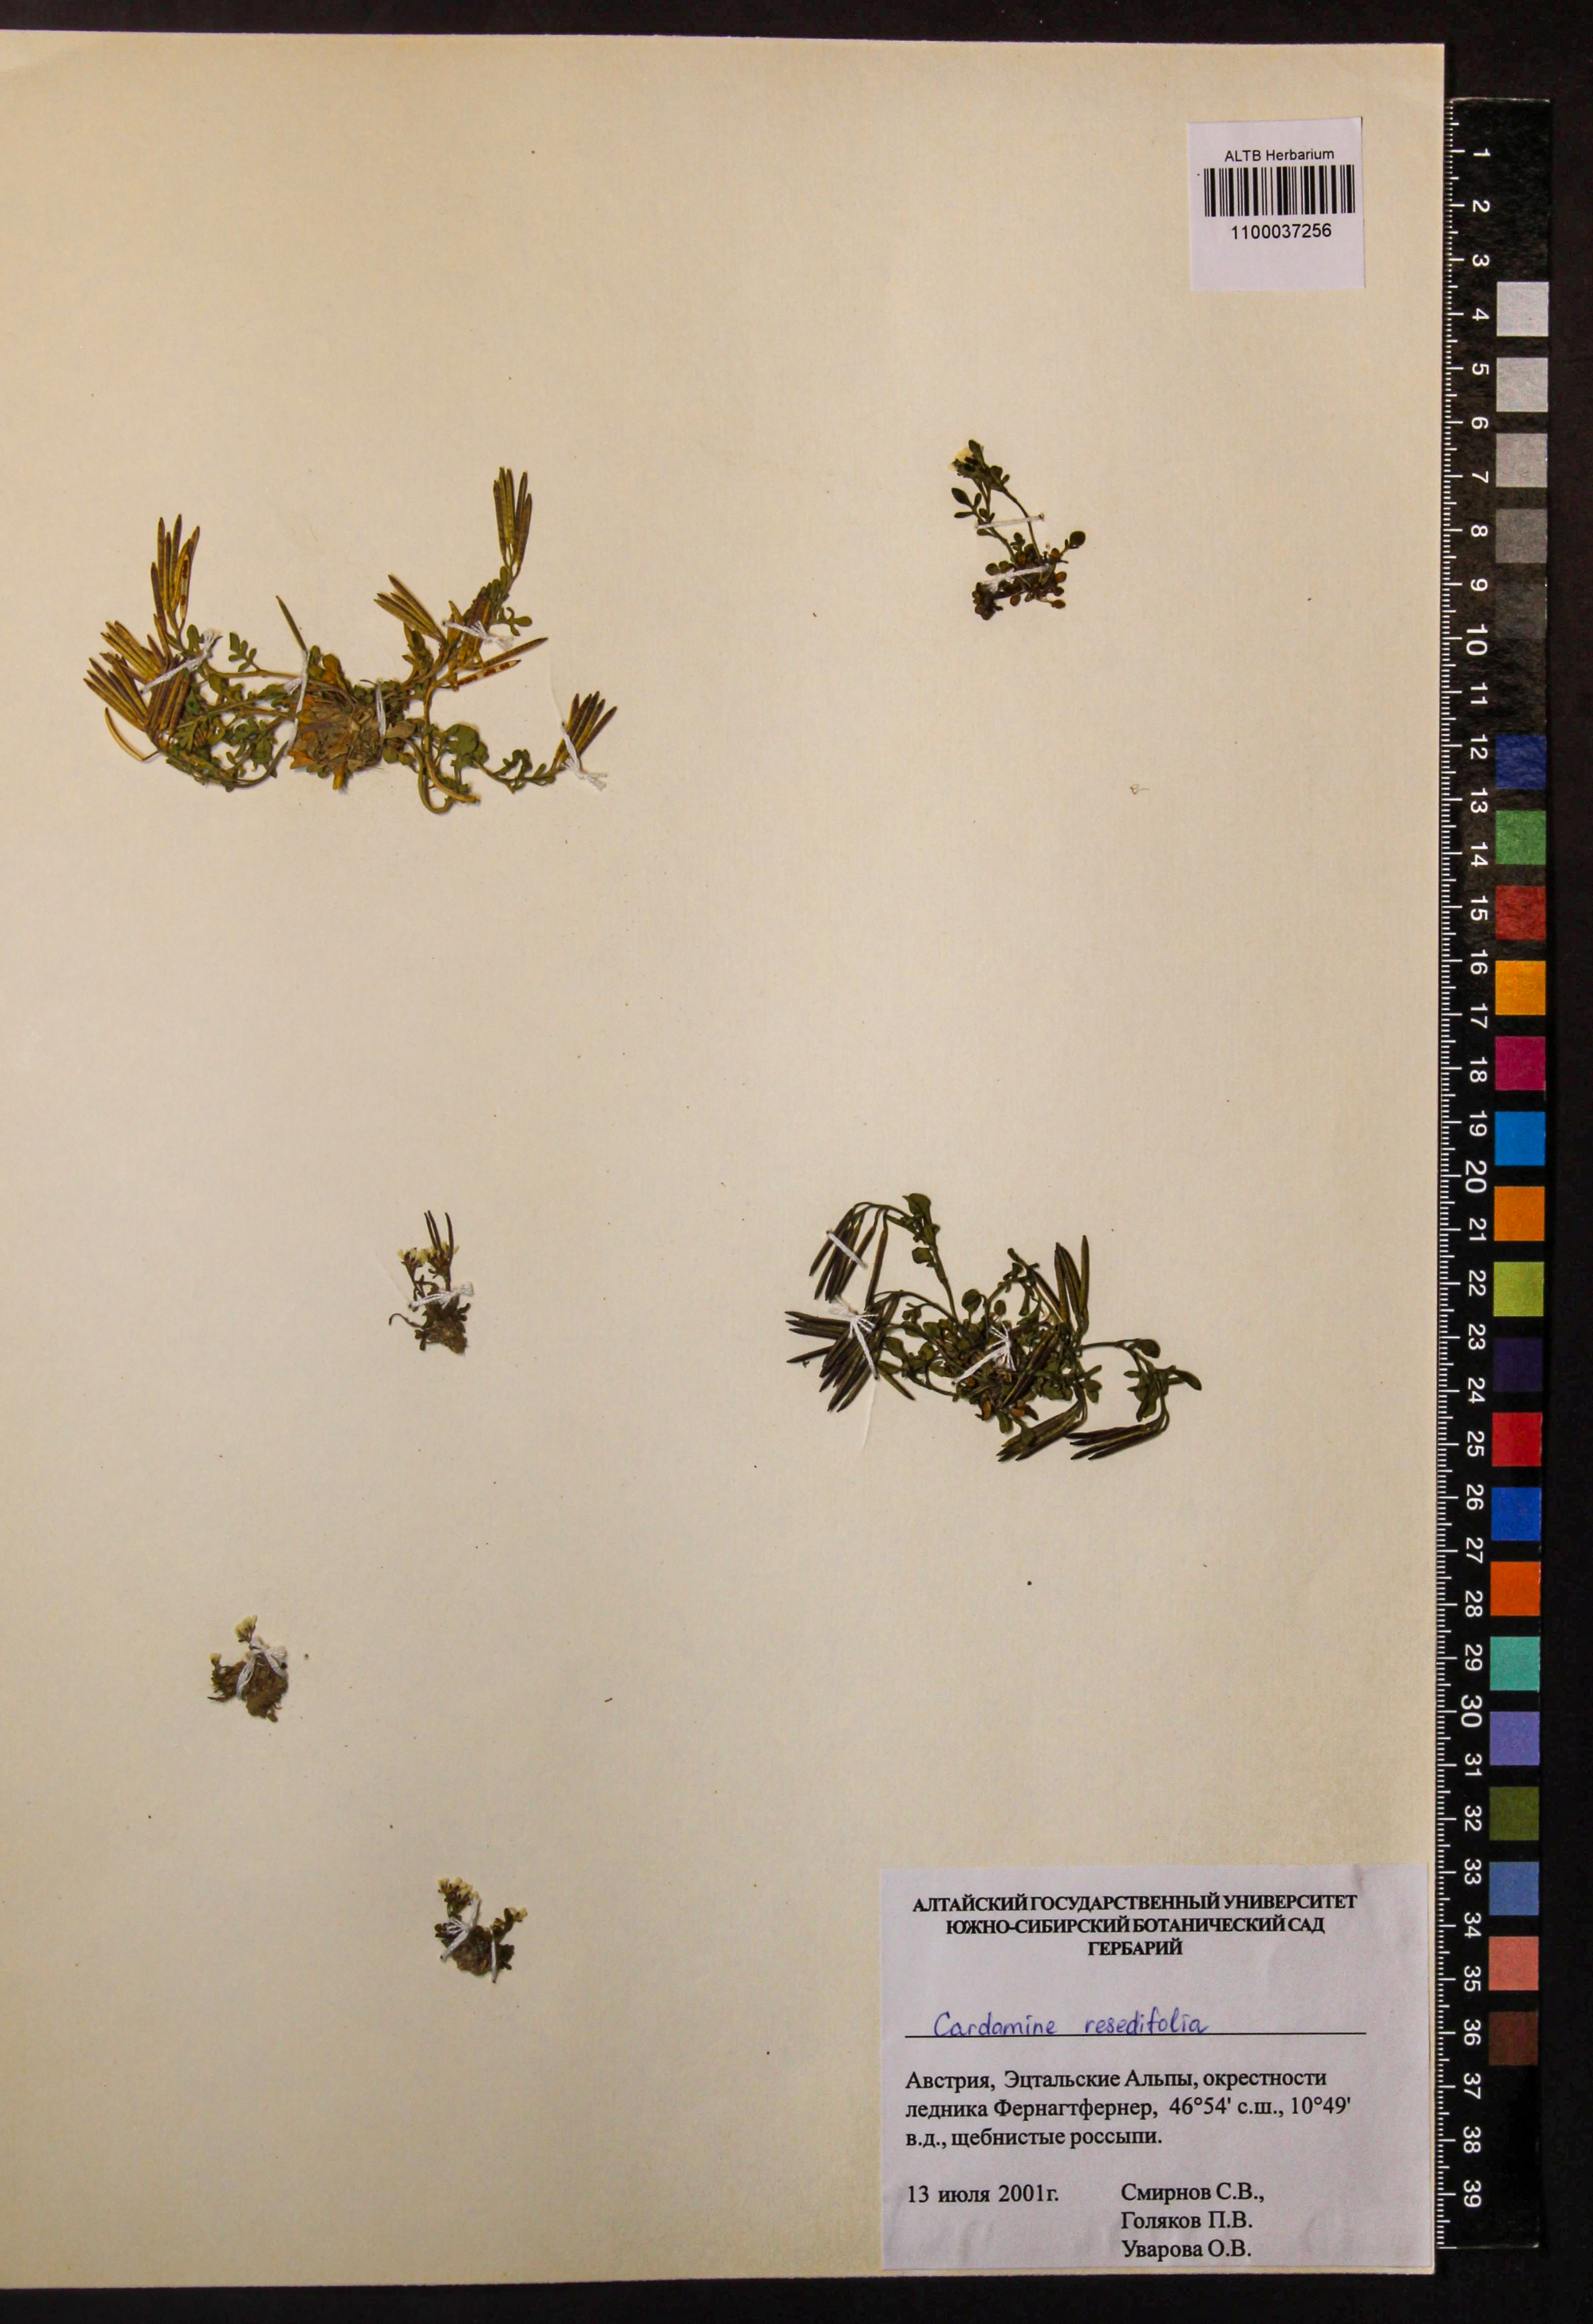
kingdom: Plantae
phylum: Tracheophyta
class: Magnoliopsida
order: Brassicales
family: Brassicaceae
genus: Cardamine
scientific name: Cardamine resedifolia
